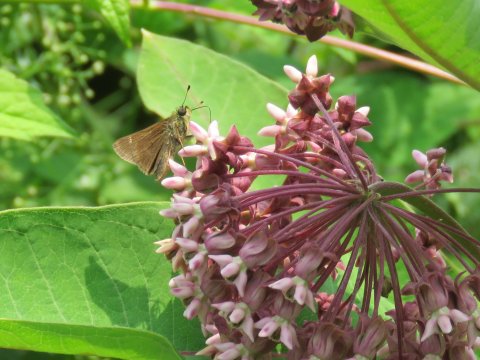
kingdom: Animalia
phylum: Arthropoda
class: Insecta
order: Lepidoptera
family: Hesperiidae
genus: Gesta
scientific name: Gesta
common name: Horace's Duskywing
